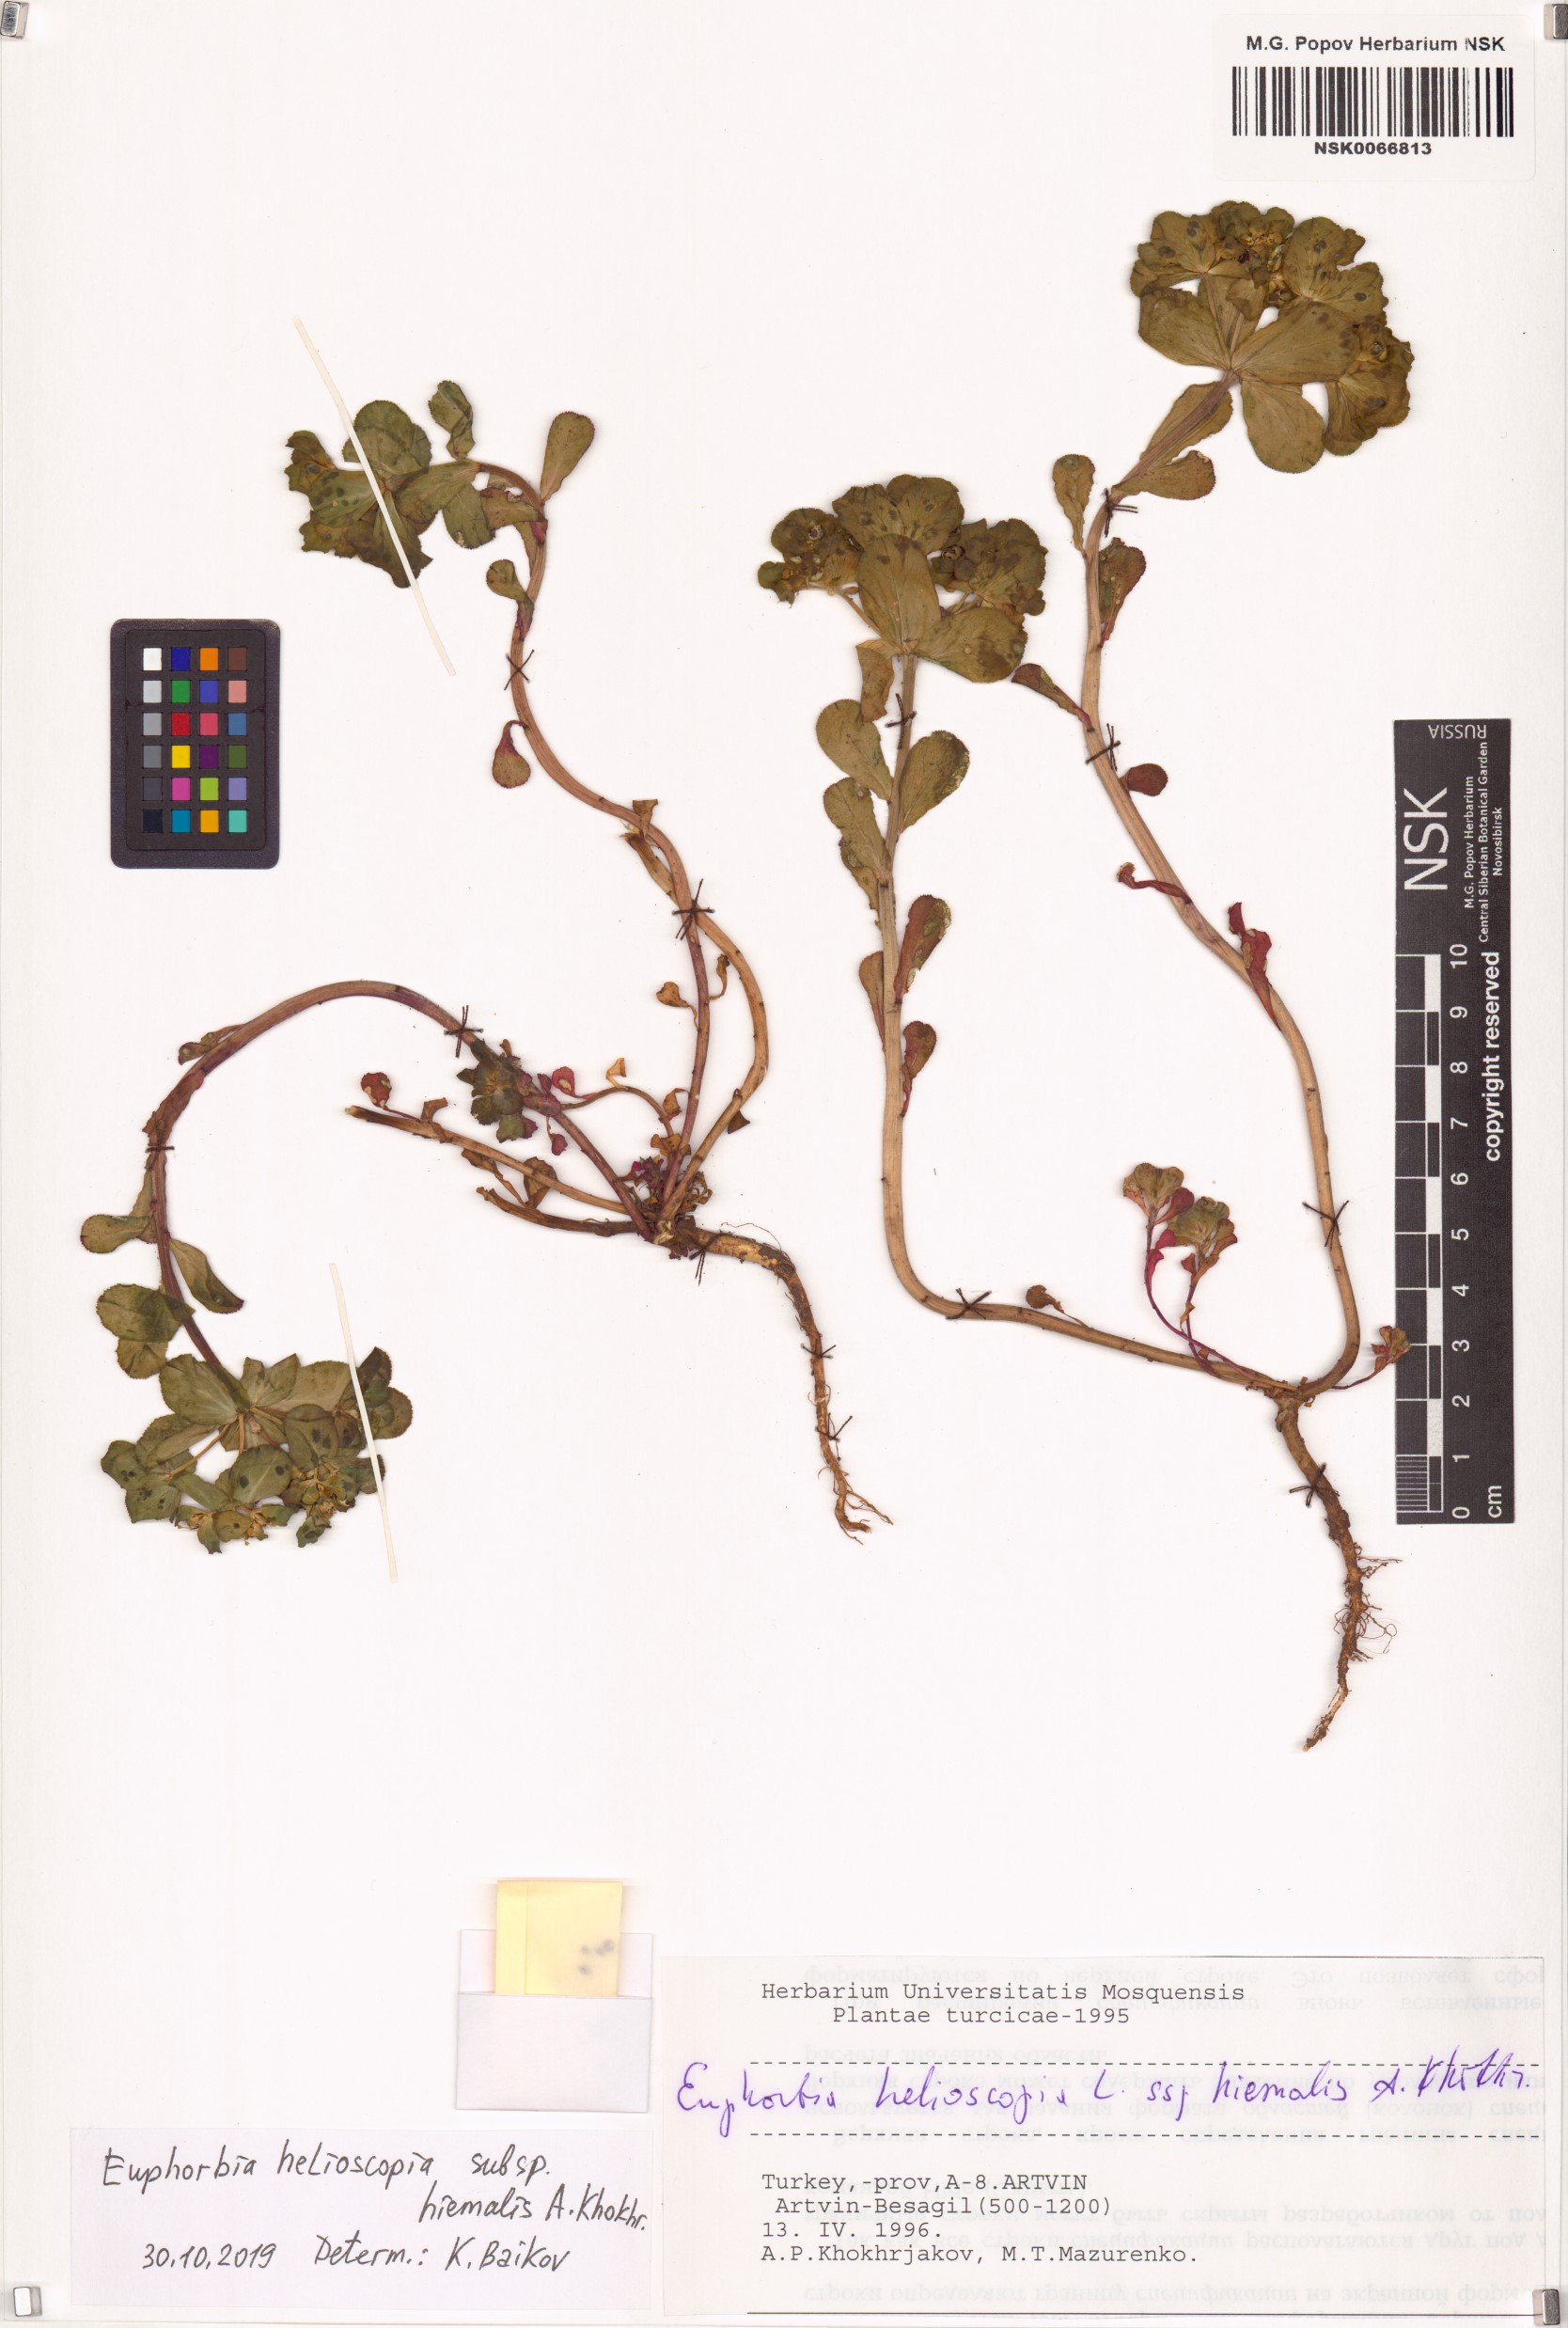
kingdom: Plantae
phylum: Tracheophyta
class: Magnoliopsida
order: Malpighiales
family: Euphorbiaceae
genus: Euphorbia
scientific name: Euphorbia helioscopia
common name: Sun spurge
